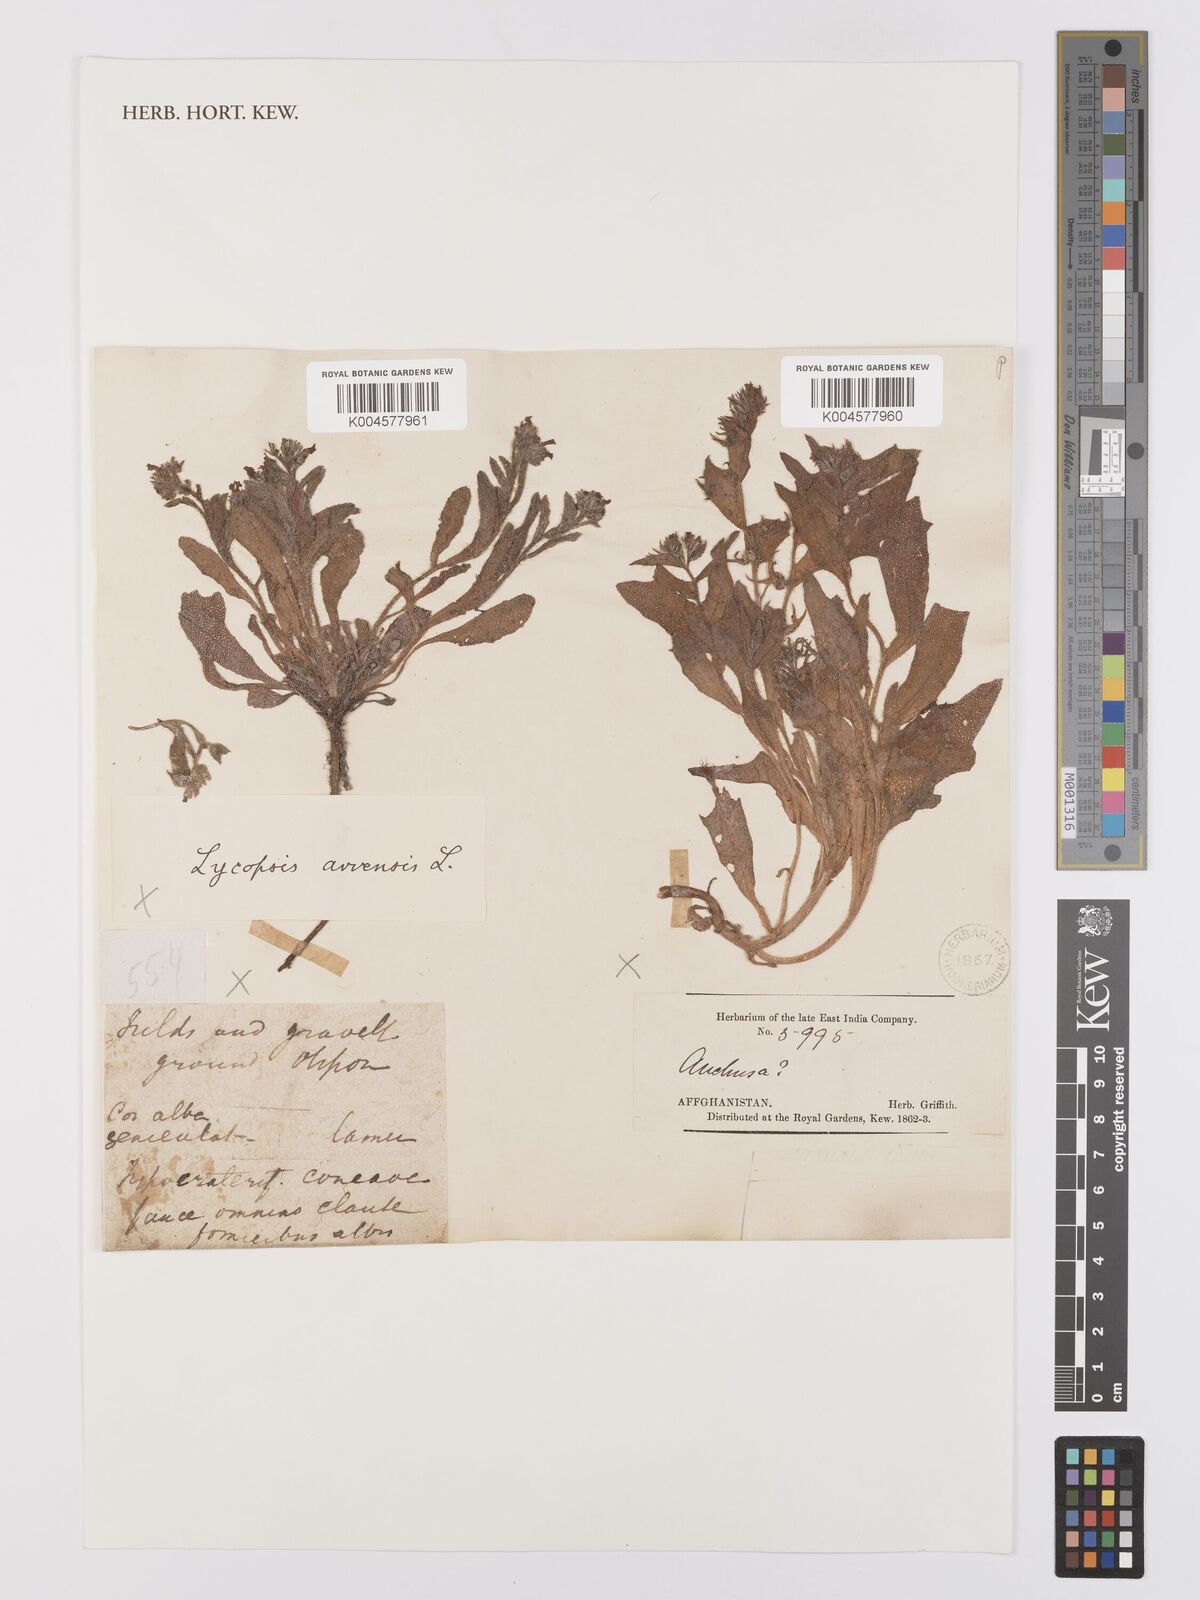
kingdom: Plantae
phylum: Tracheophyta
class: Magnoliopsida
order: Boraginales
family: Boraginaceae
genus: Lycopsis
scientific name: Lycopsis arvensis
